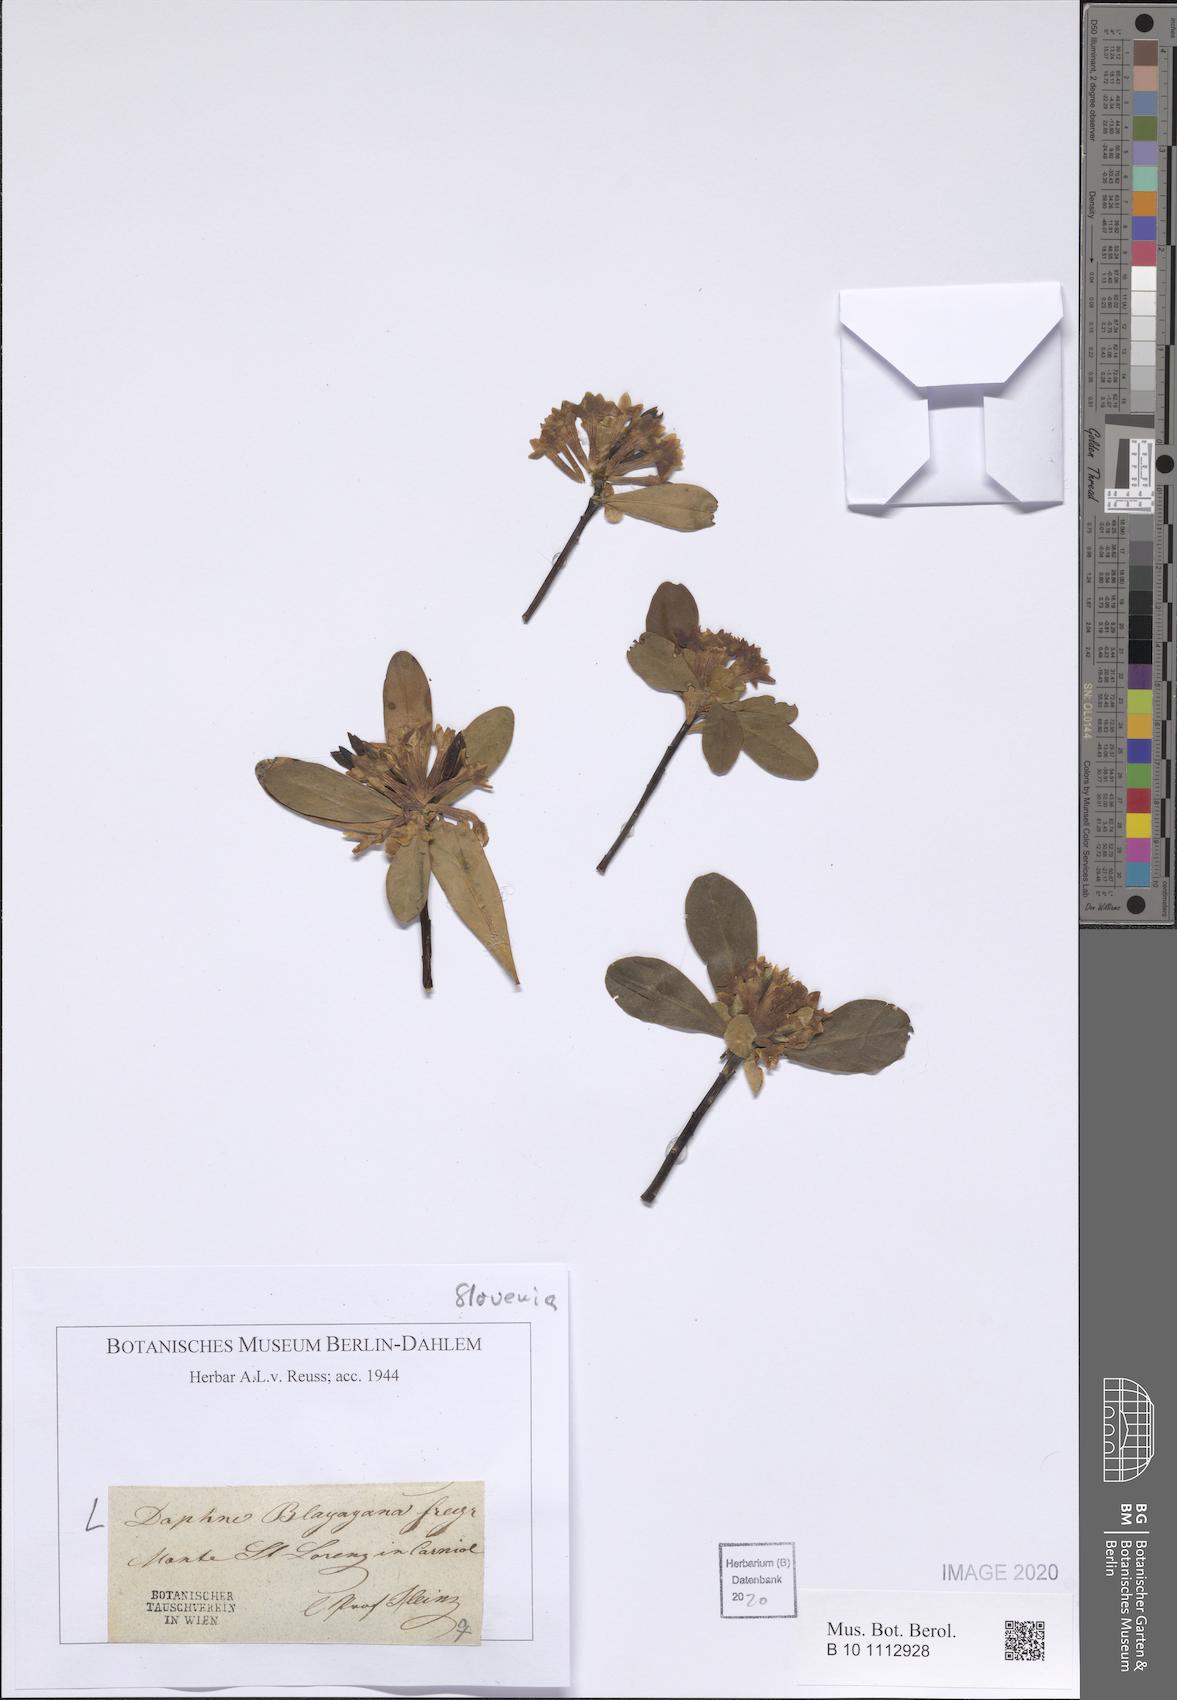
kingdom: Plantae
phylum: Tracheophyta
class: Magnoliopsida
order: Malvales
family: Thymelaeaceae
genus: Daphne
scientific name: Daphne blagayana
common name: Balkan daphne
